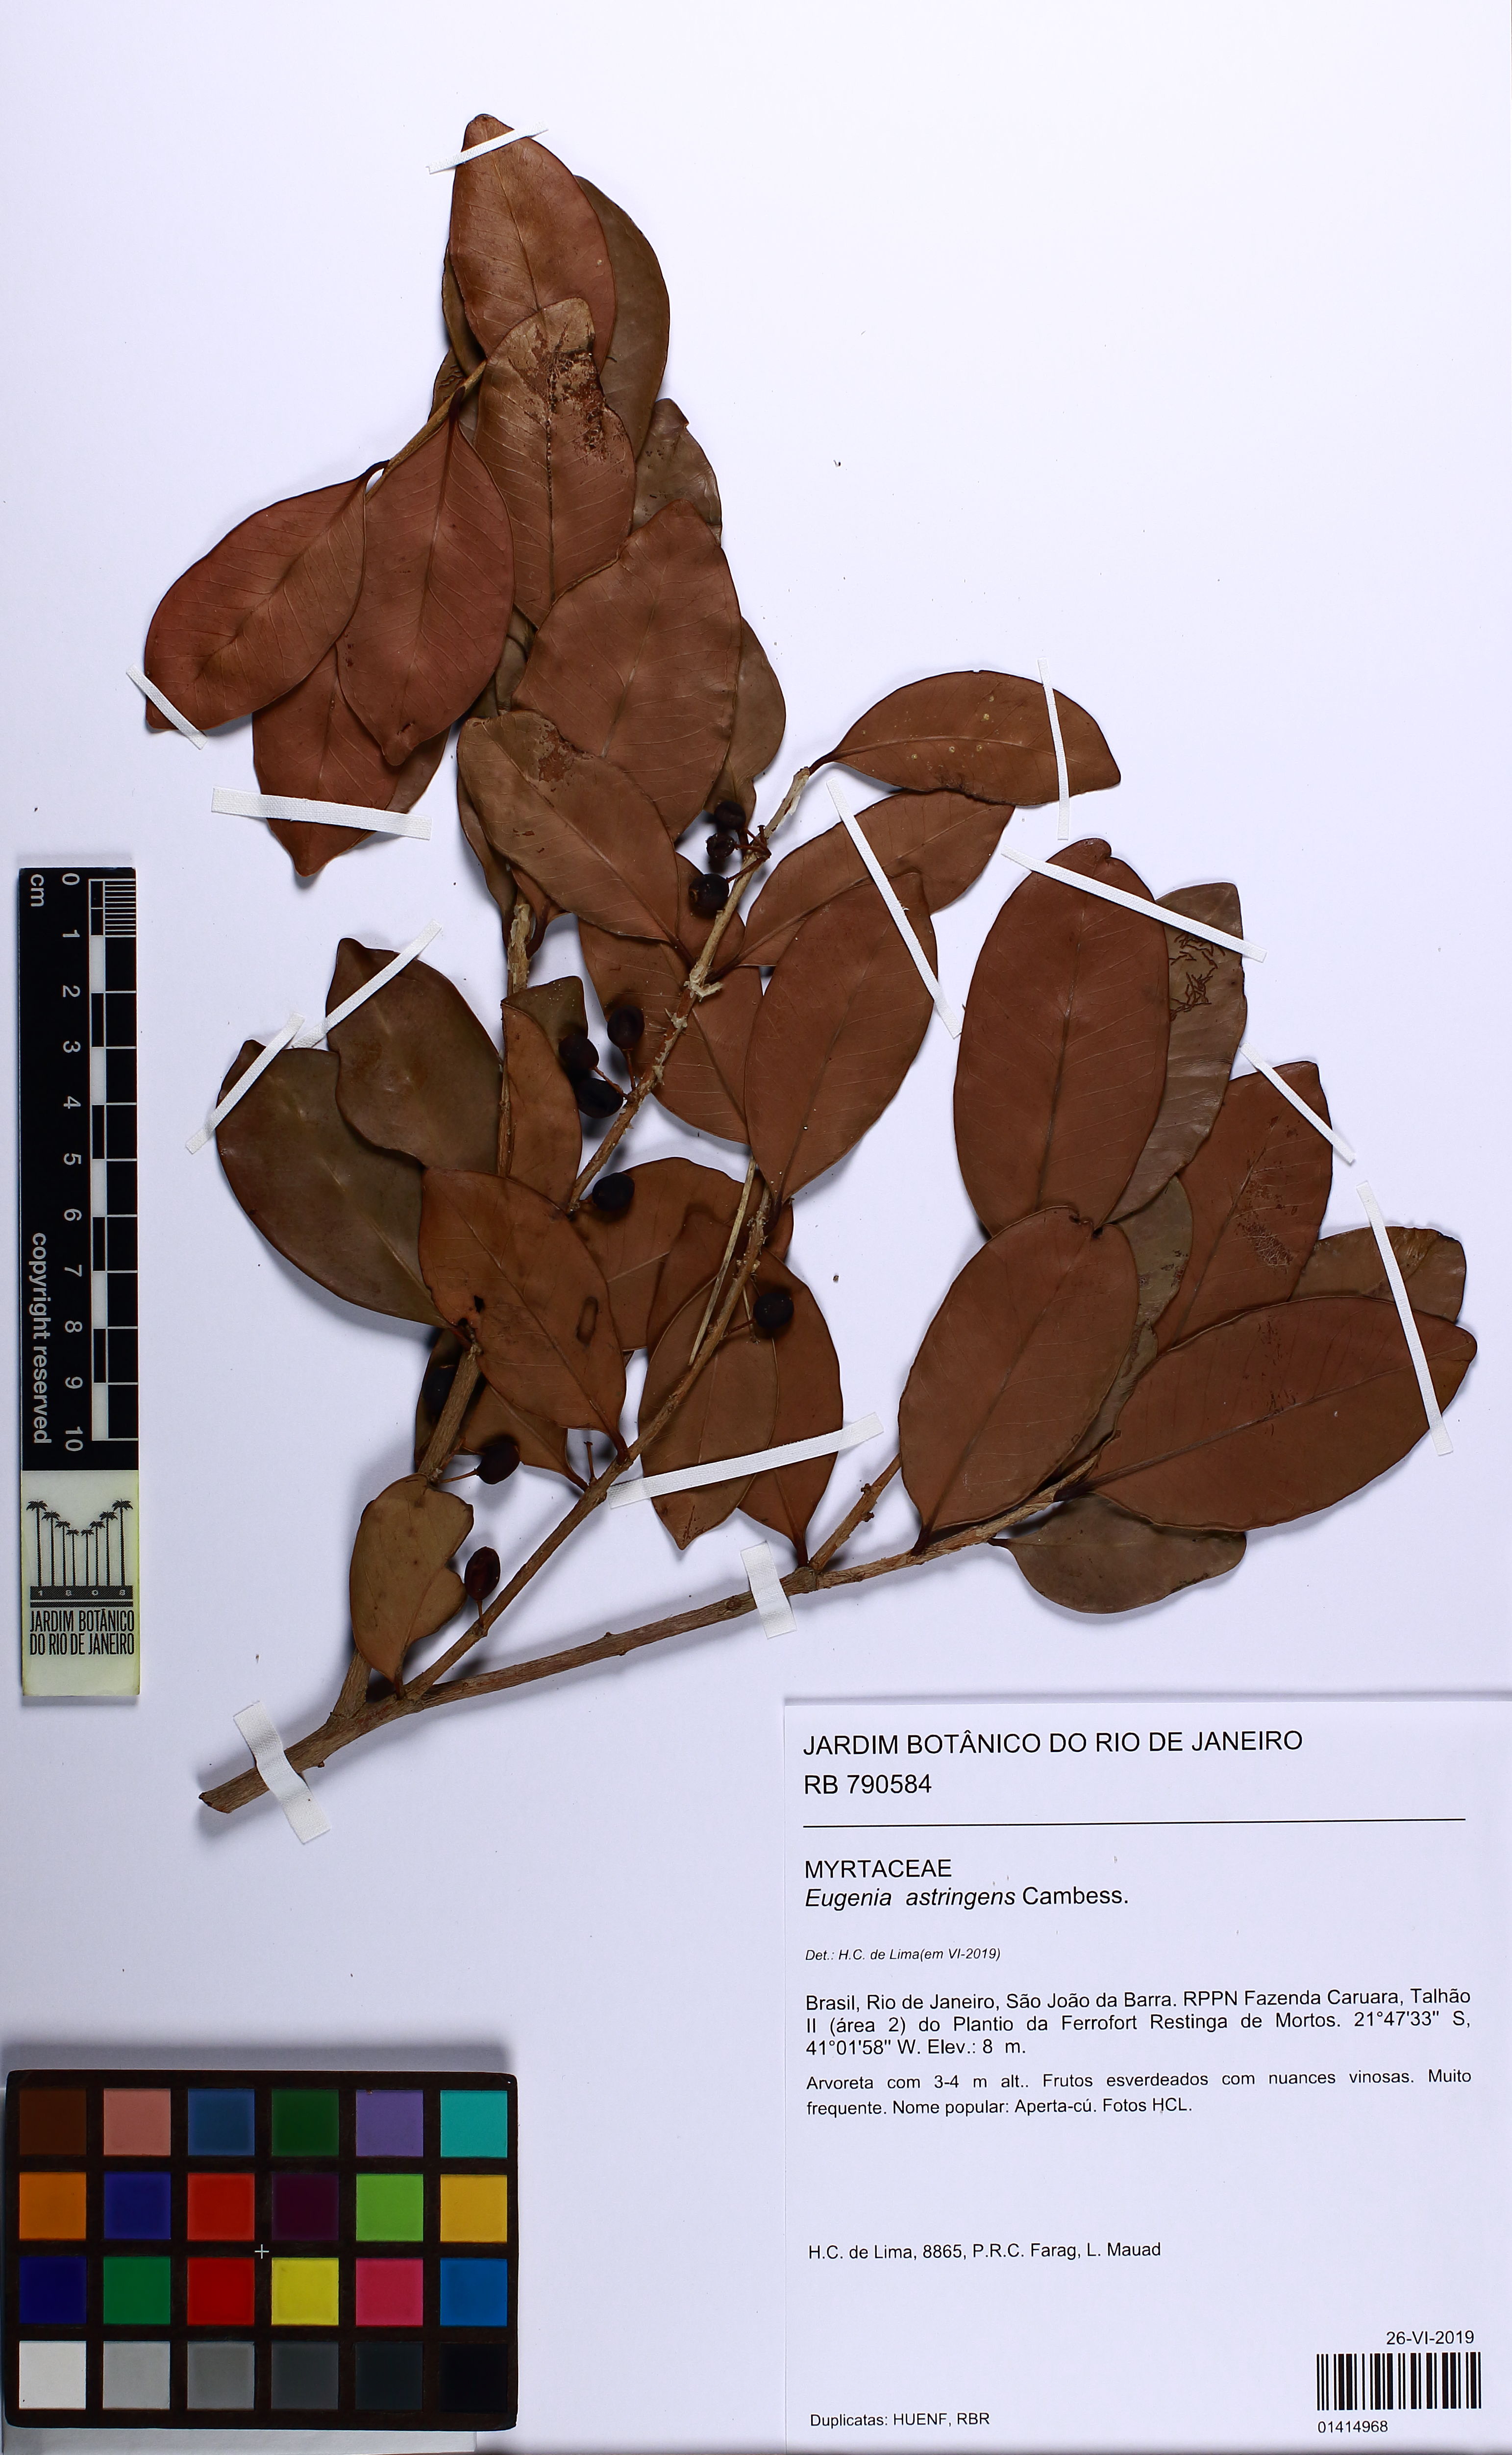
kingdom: Plantae
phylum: Tracheophyta
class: Magnoliopsida
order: Myrtales
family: Myrtaceae
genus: Eugenia
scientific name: Eugenia astringens
